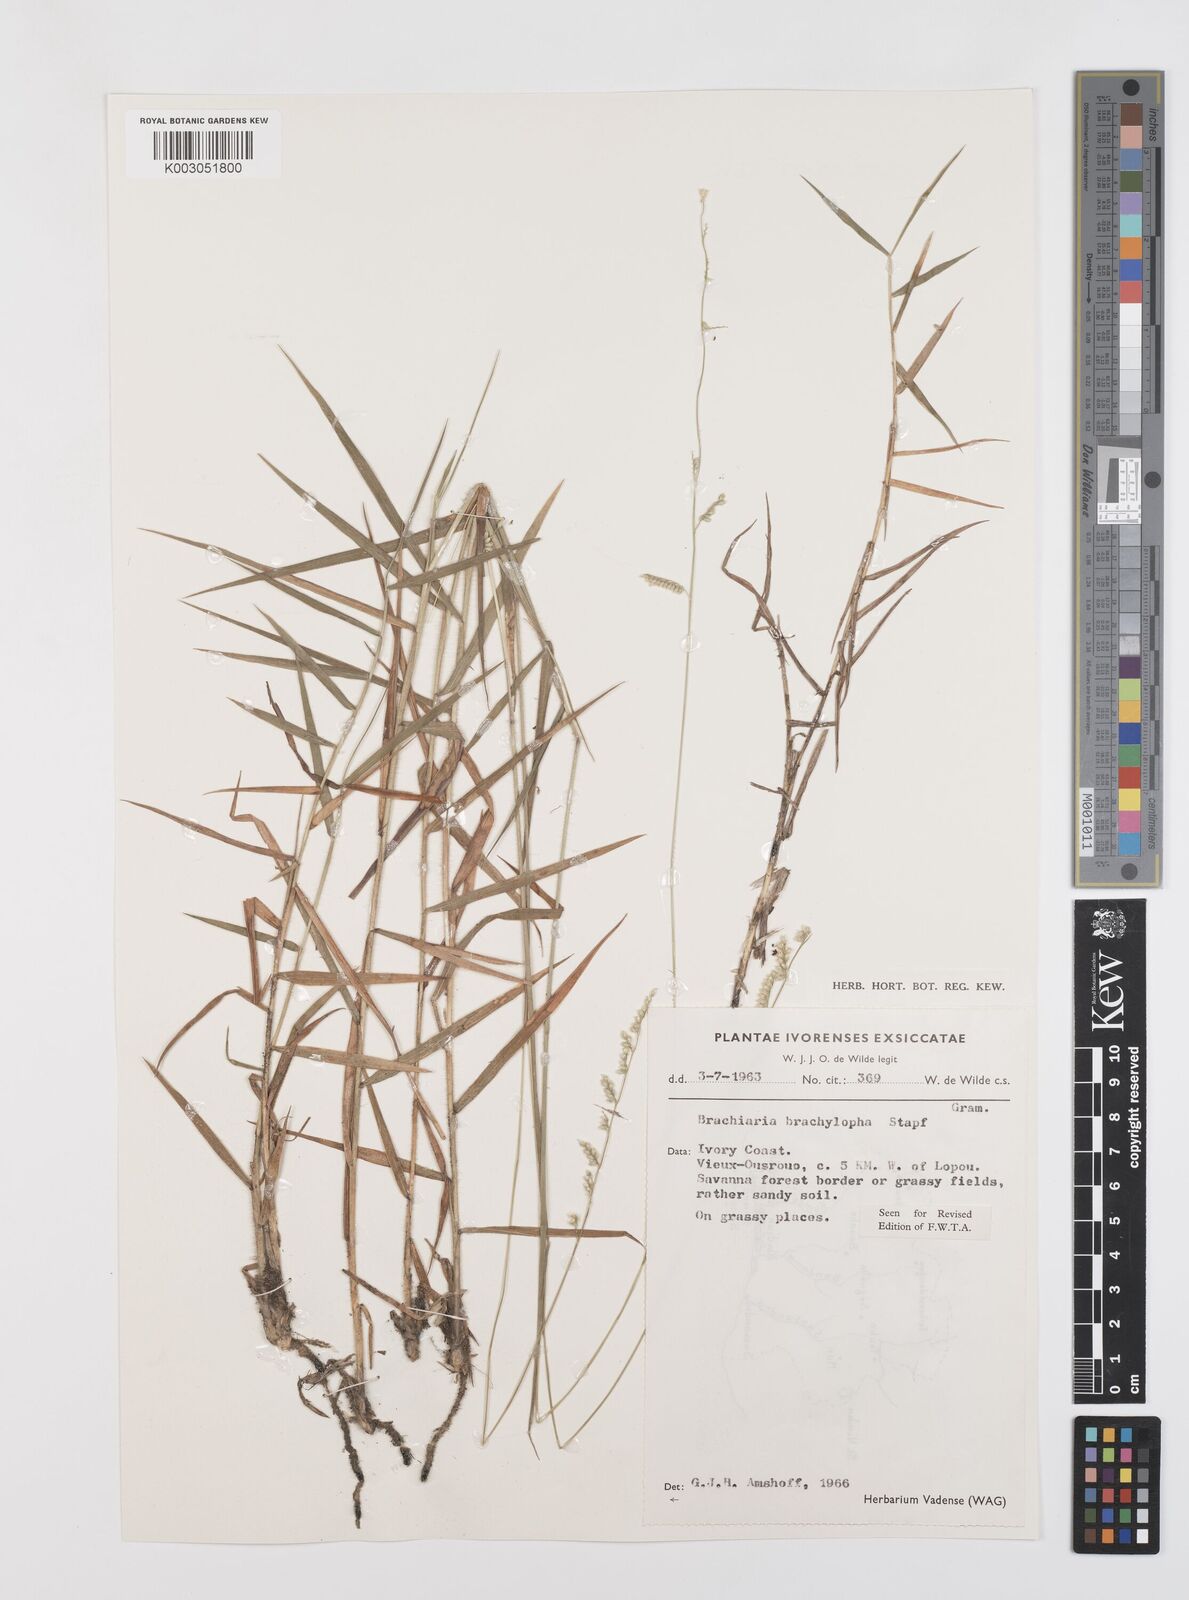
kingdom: Plantae
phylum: Tracheophyta
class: Liliopsida
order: Poales
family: Poaceae
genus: Urochloa
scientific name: Urochloa serrata
